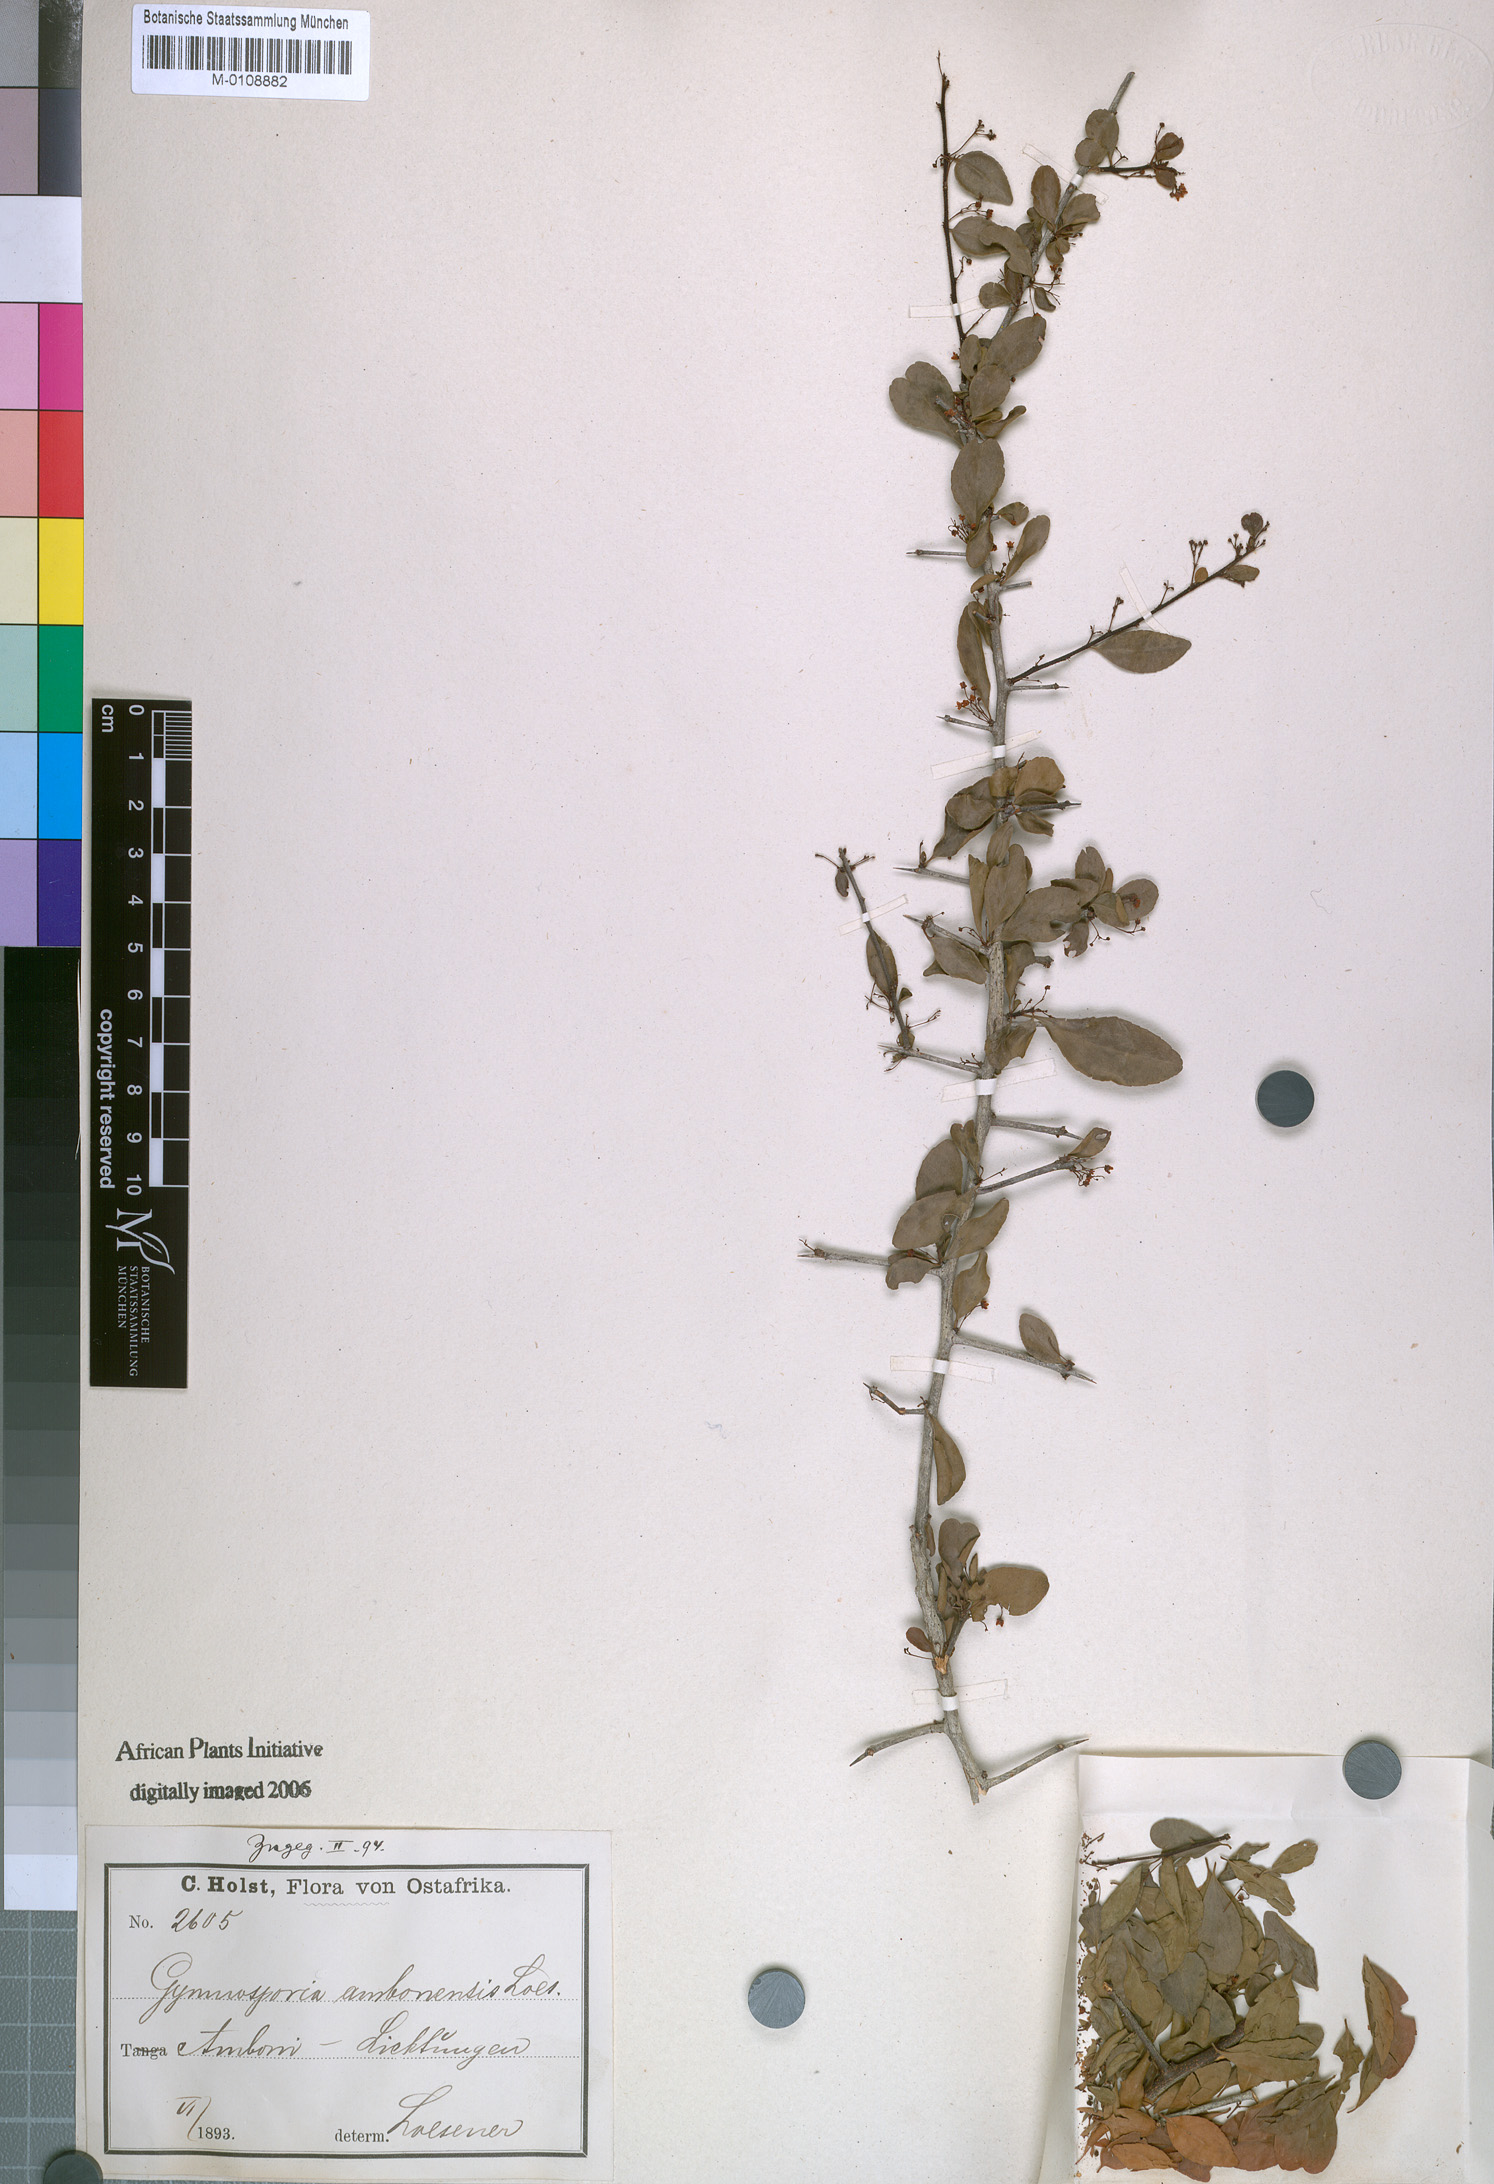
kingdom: Plantae
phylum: Tracheophyta
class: Magnoliopsida
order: Celastrales
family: Celastraceae
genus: Gymnosporia
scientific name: Gymnosporia gracilis
